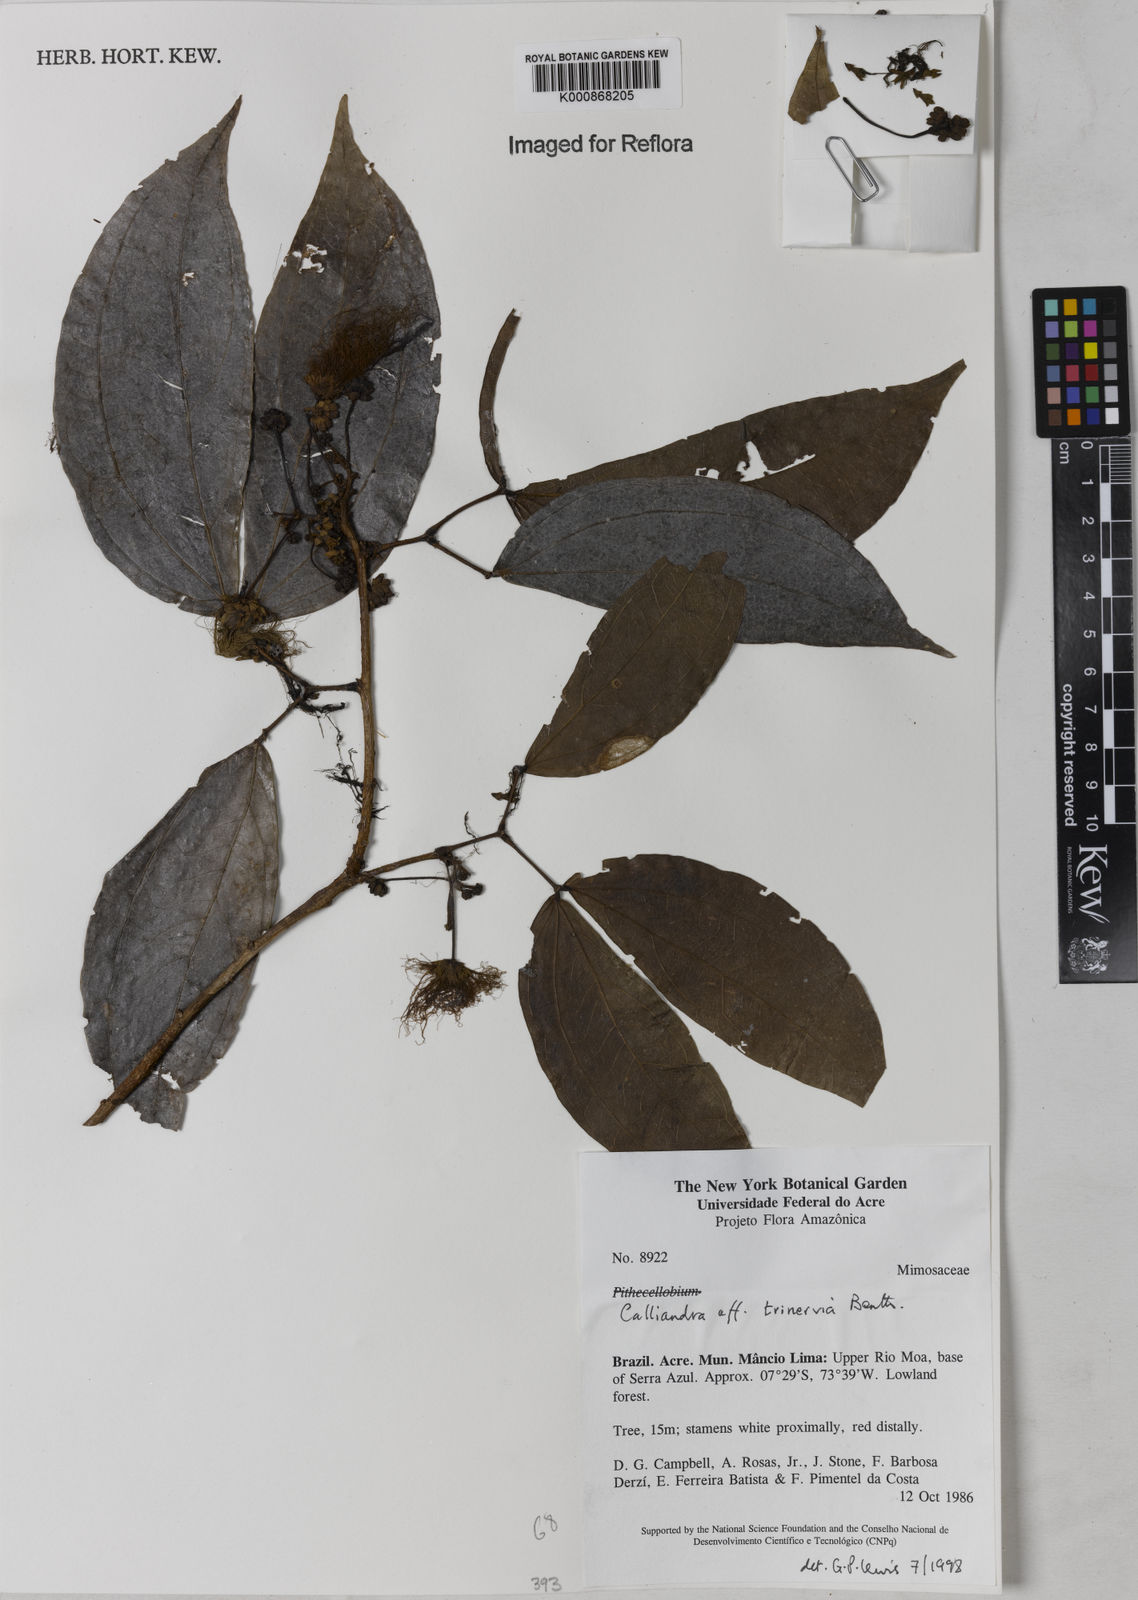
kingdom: Plantae
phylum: Tracheophyta
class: Magnoliopsida
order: Fabales
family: Fabaceae
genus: Calliandra
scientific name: Calliandra trinervia
